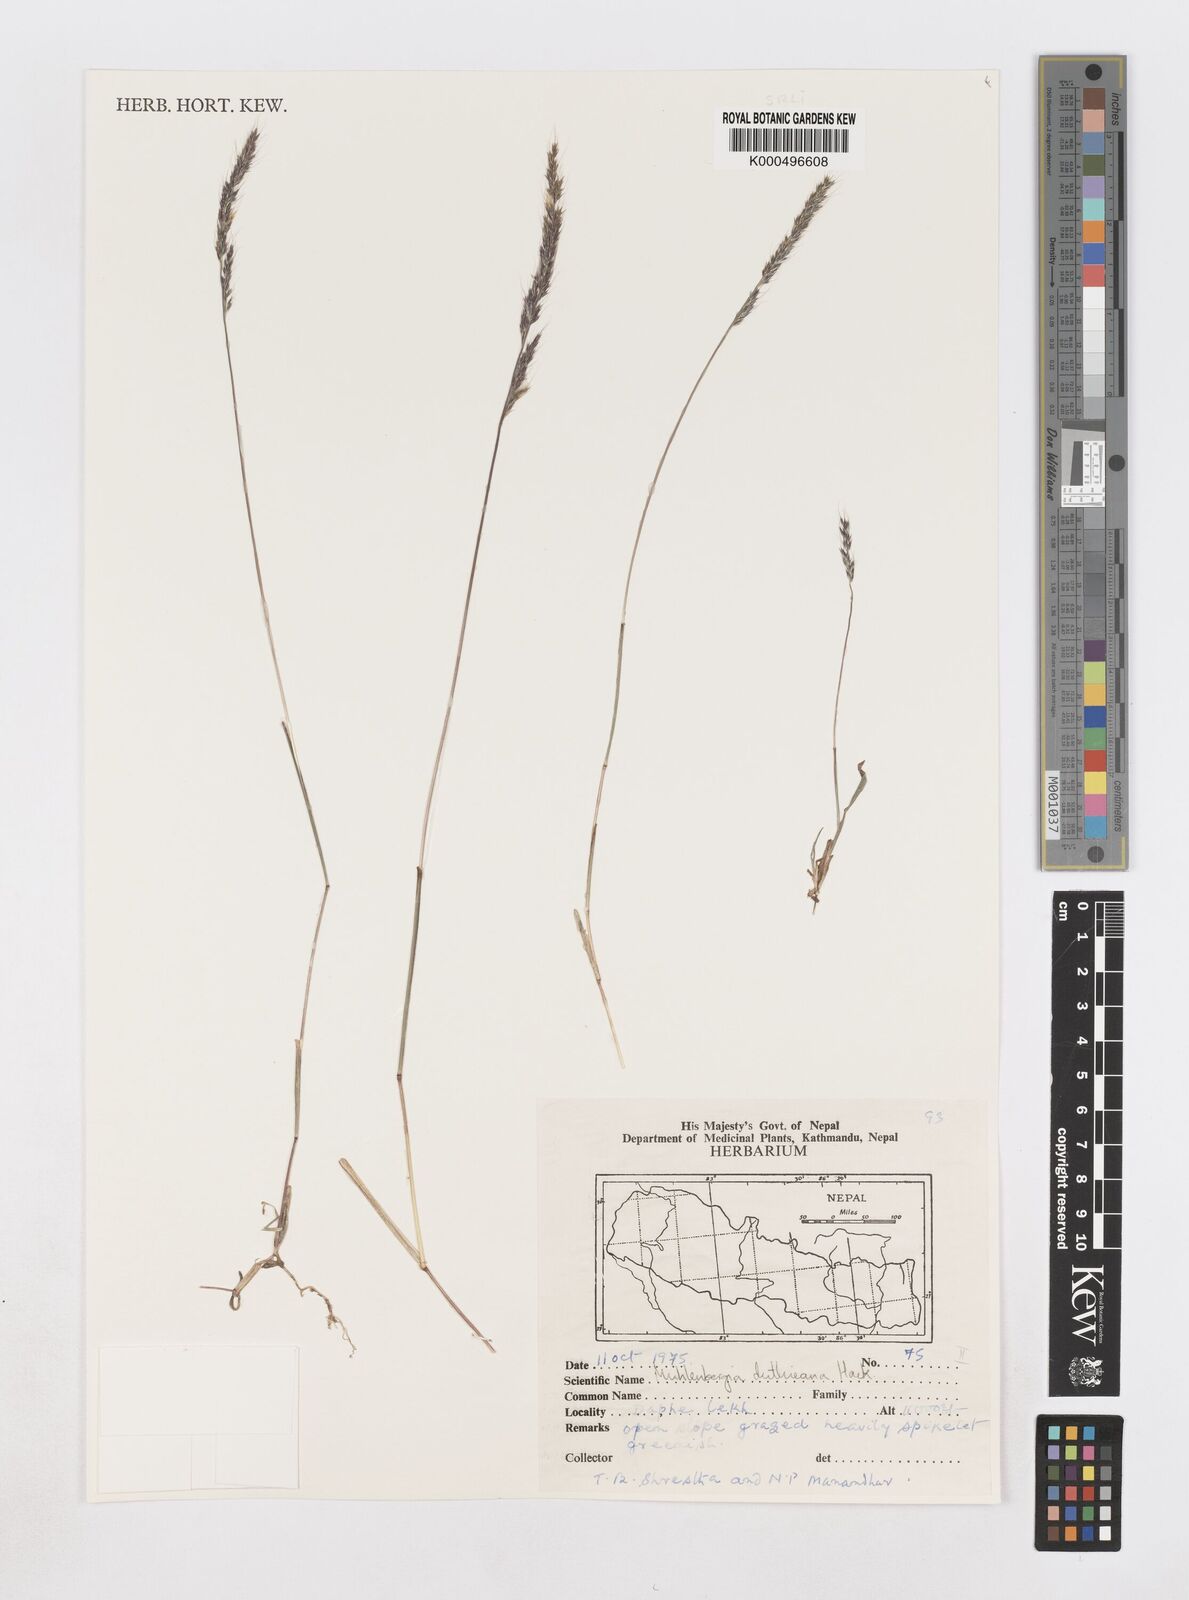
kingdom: Plantae
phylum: Tracheophyta
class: Liliopsida
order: Poales
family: Poaceae
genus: Muhlenbergia
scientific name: Muhlenbergia duthieana
